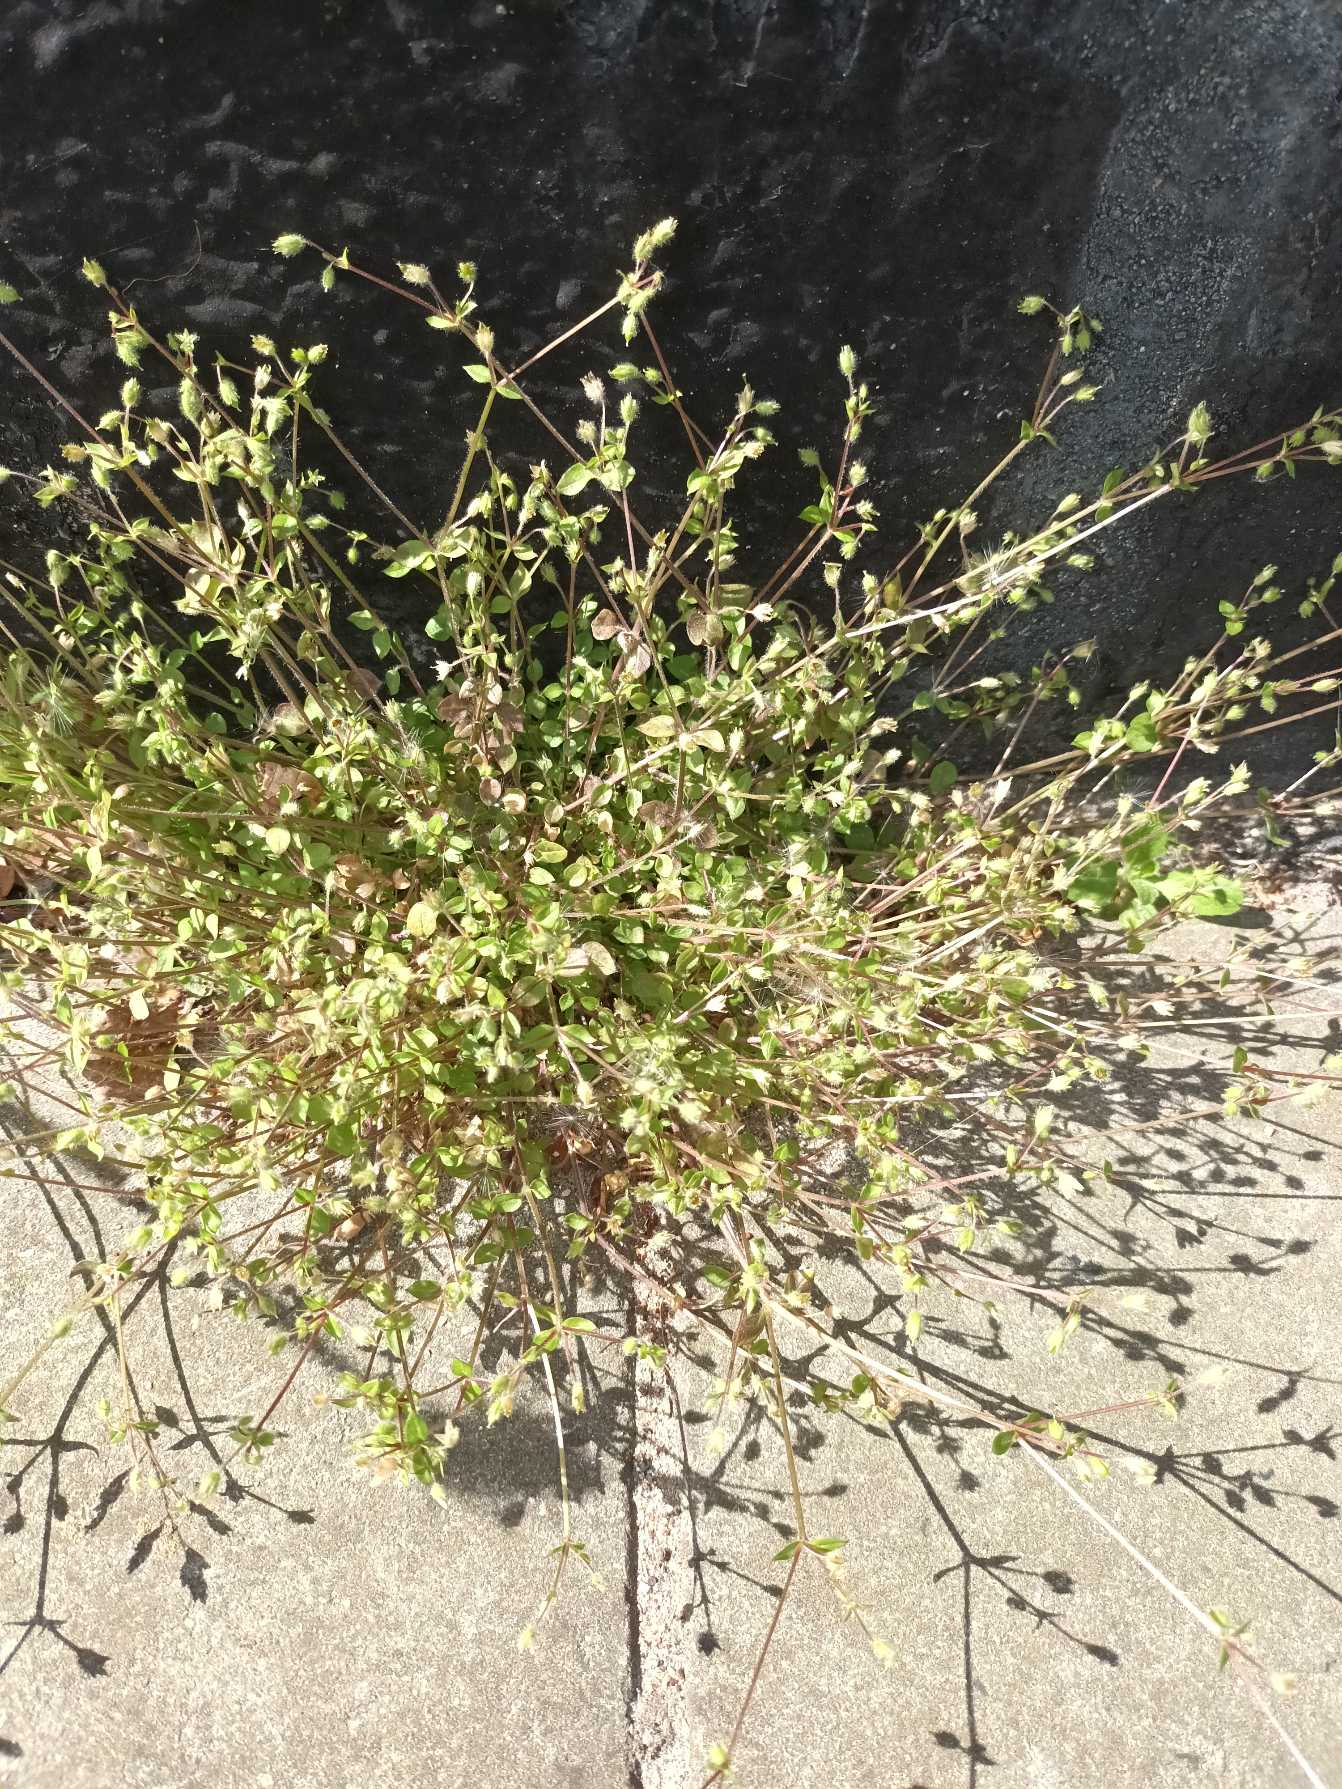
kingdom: Plantae
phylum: Tracheophyta
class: Magnoliopsida
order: Caryophyllales
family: Caryophyllaceae
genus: Stellaria
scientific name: Stellaria apetala
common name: Bleg fuglegræs
